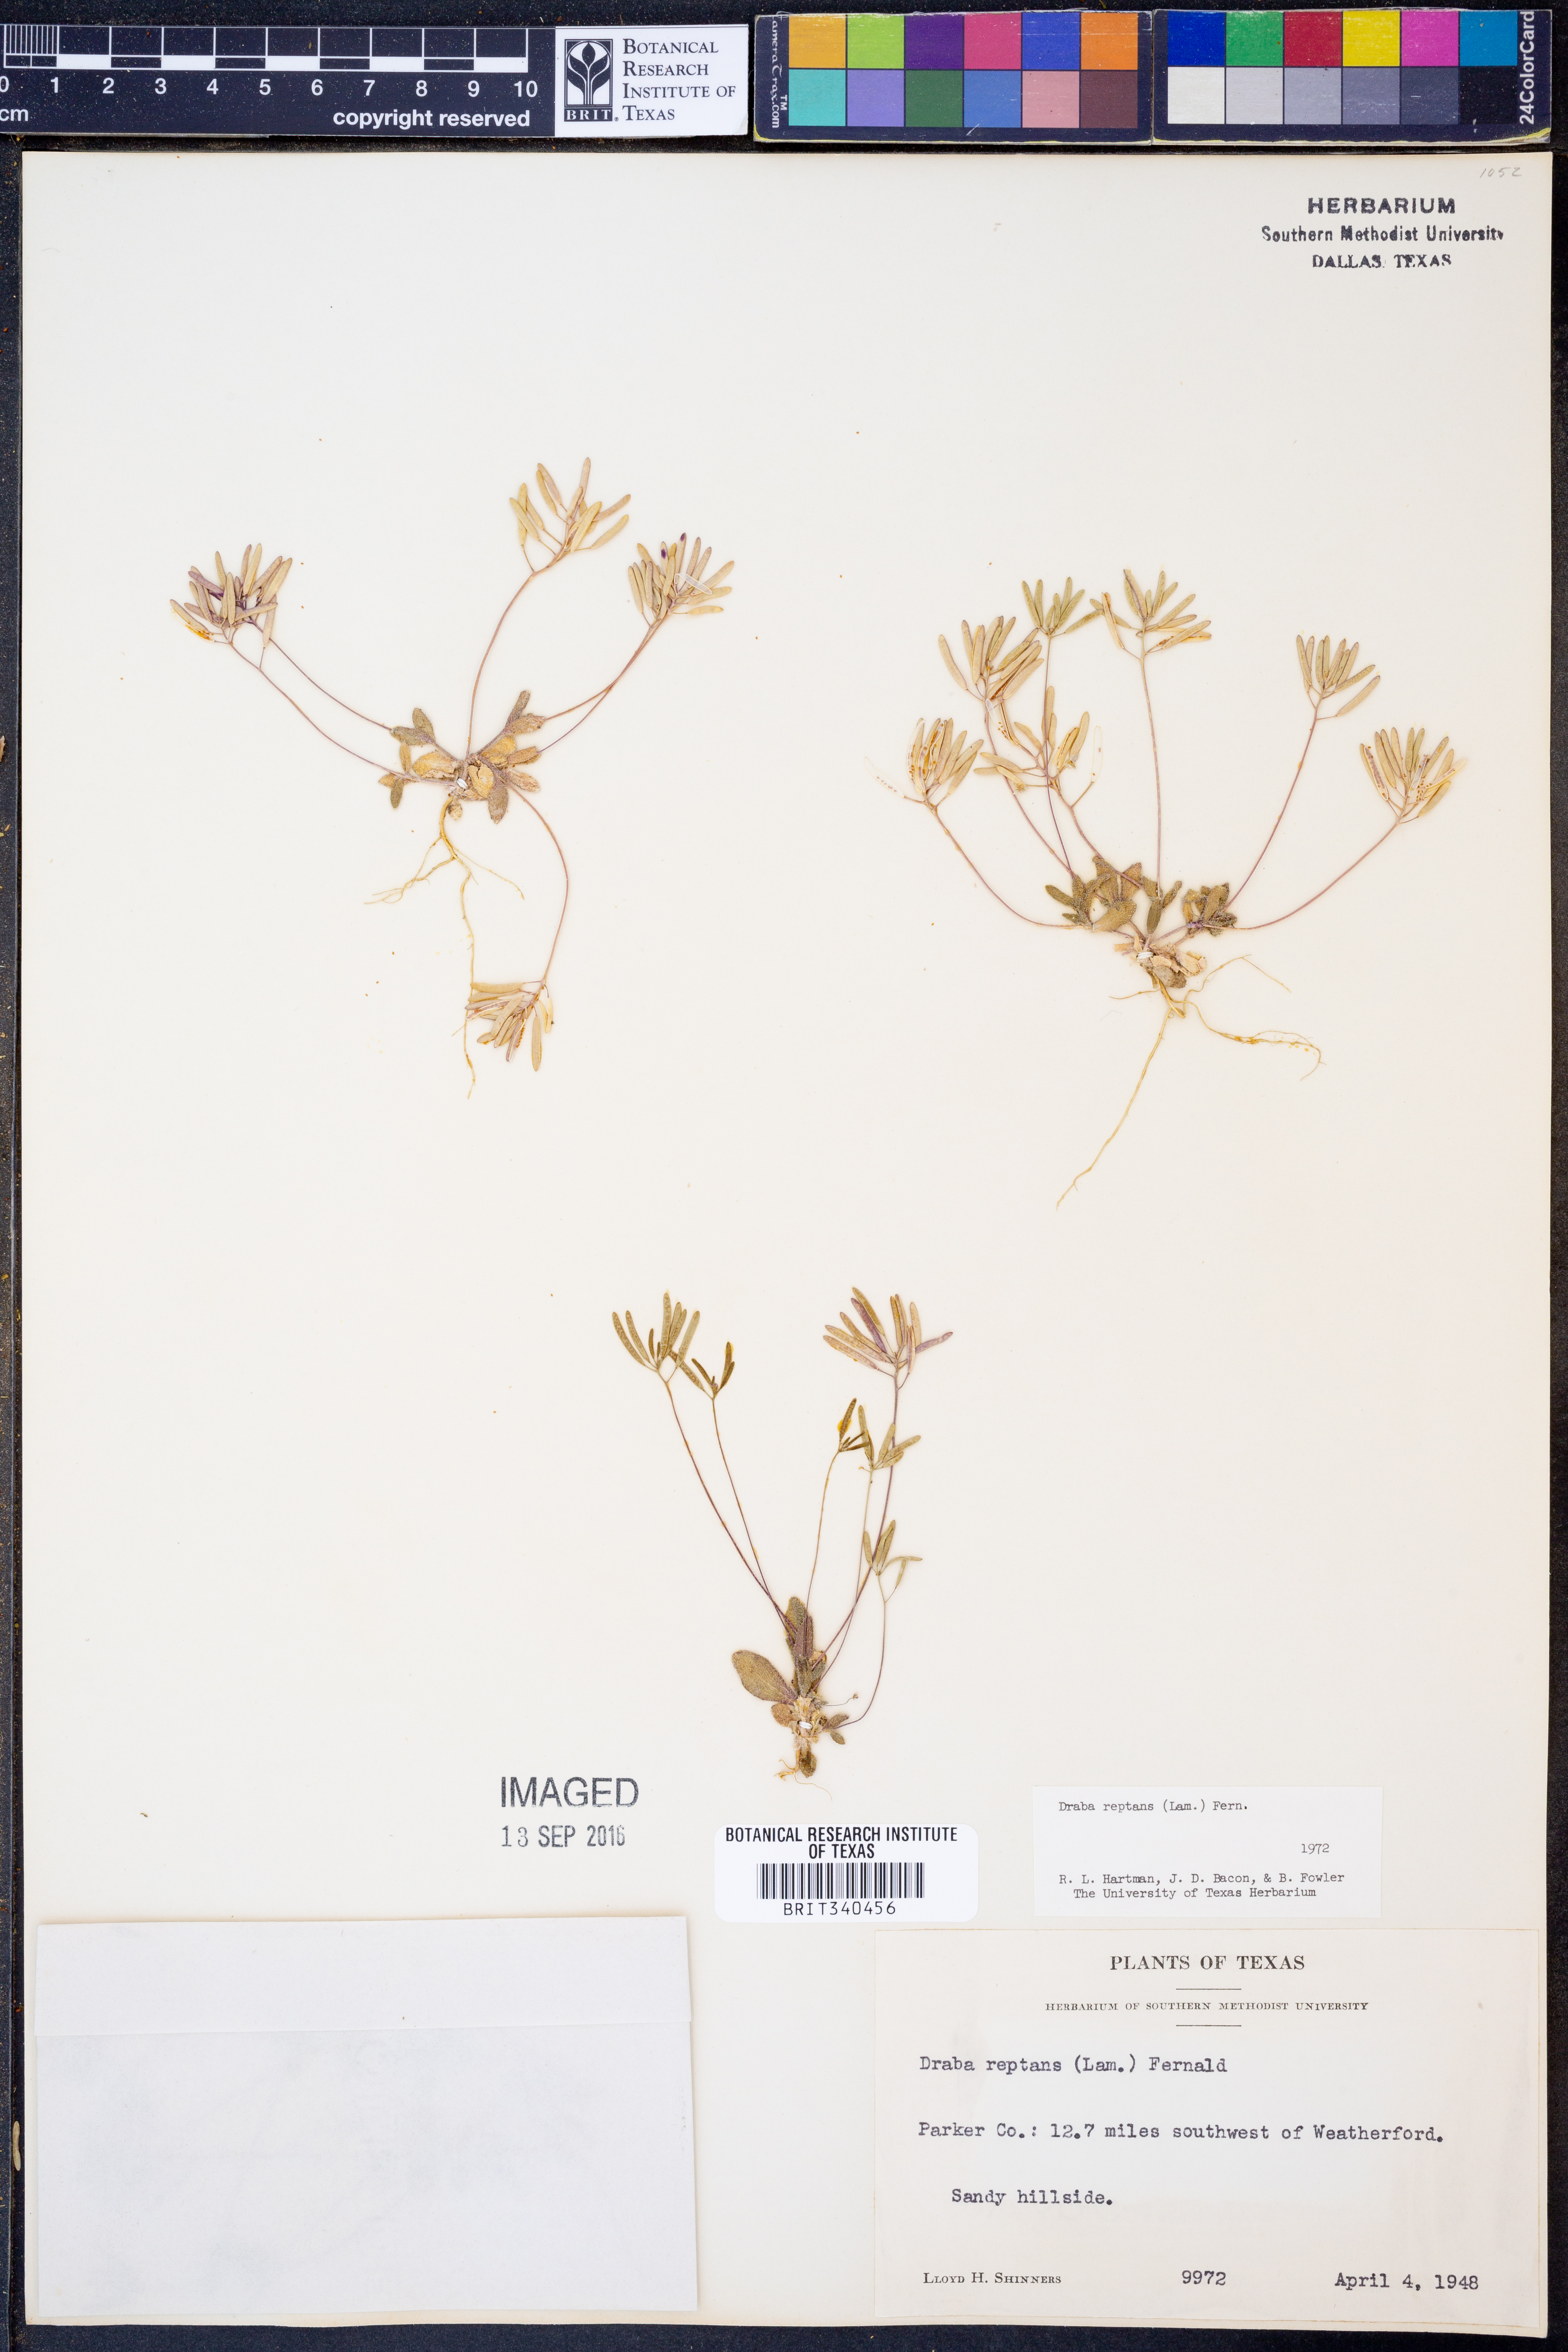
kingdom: Plantae
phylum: Tracheophyta
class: Magnoliopsida
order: Brassicales
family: Brassicaceae
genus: Tomostima
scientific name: Tomostima reptans
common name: Carolina draba
